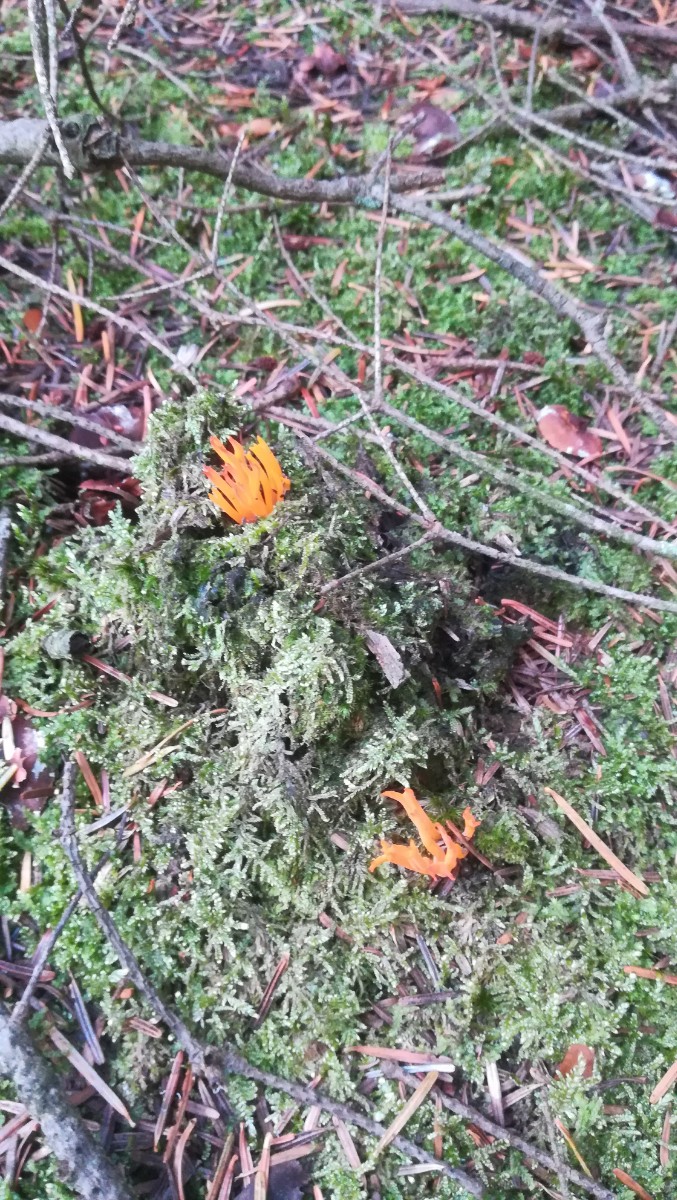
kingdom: Fungi
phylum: Basidiomycota
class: Dacrymycetes
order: Dacrymycetales
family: Dacrymycetaceae
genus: Calocera
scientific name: Calocera viscosa
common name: almindelig guldgaffel
